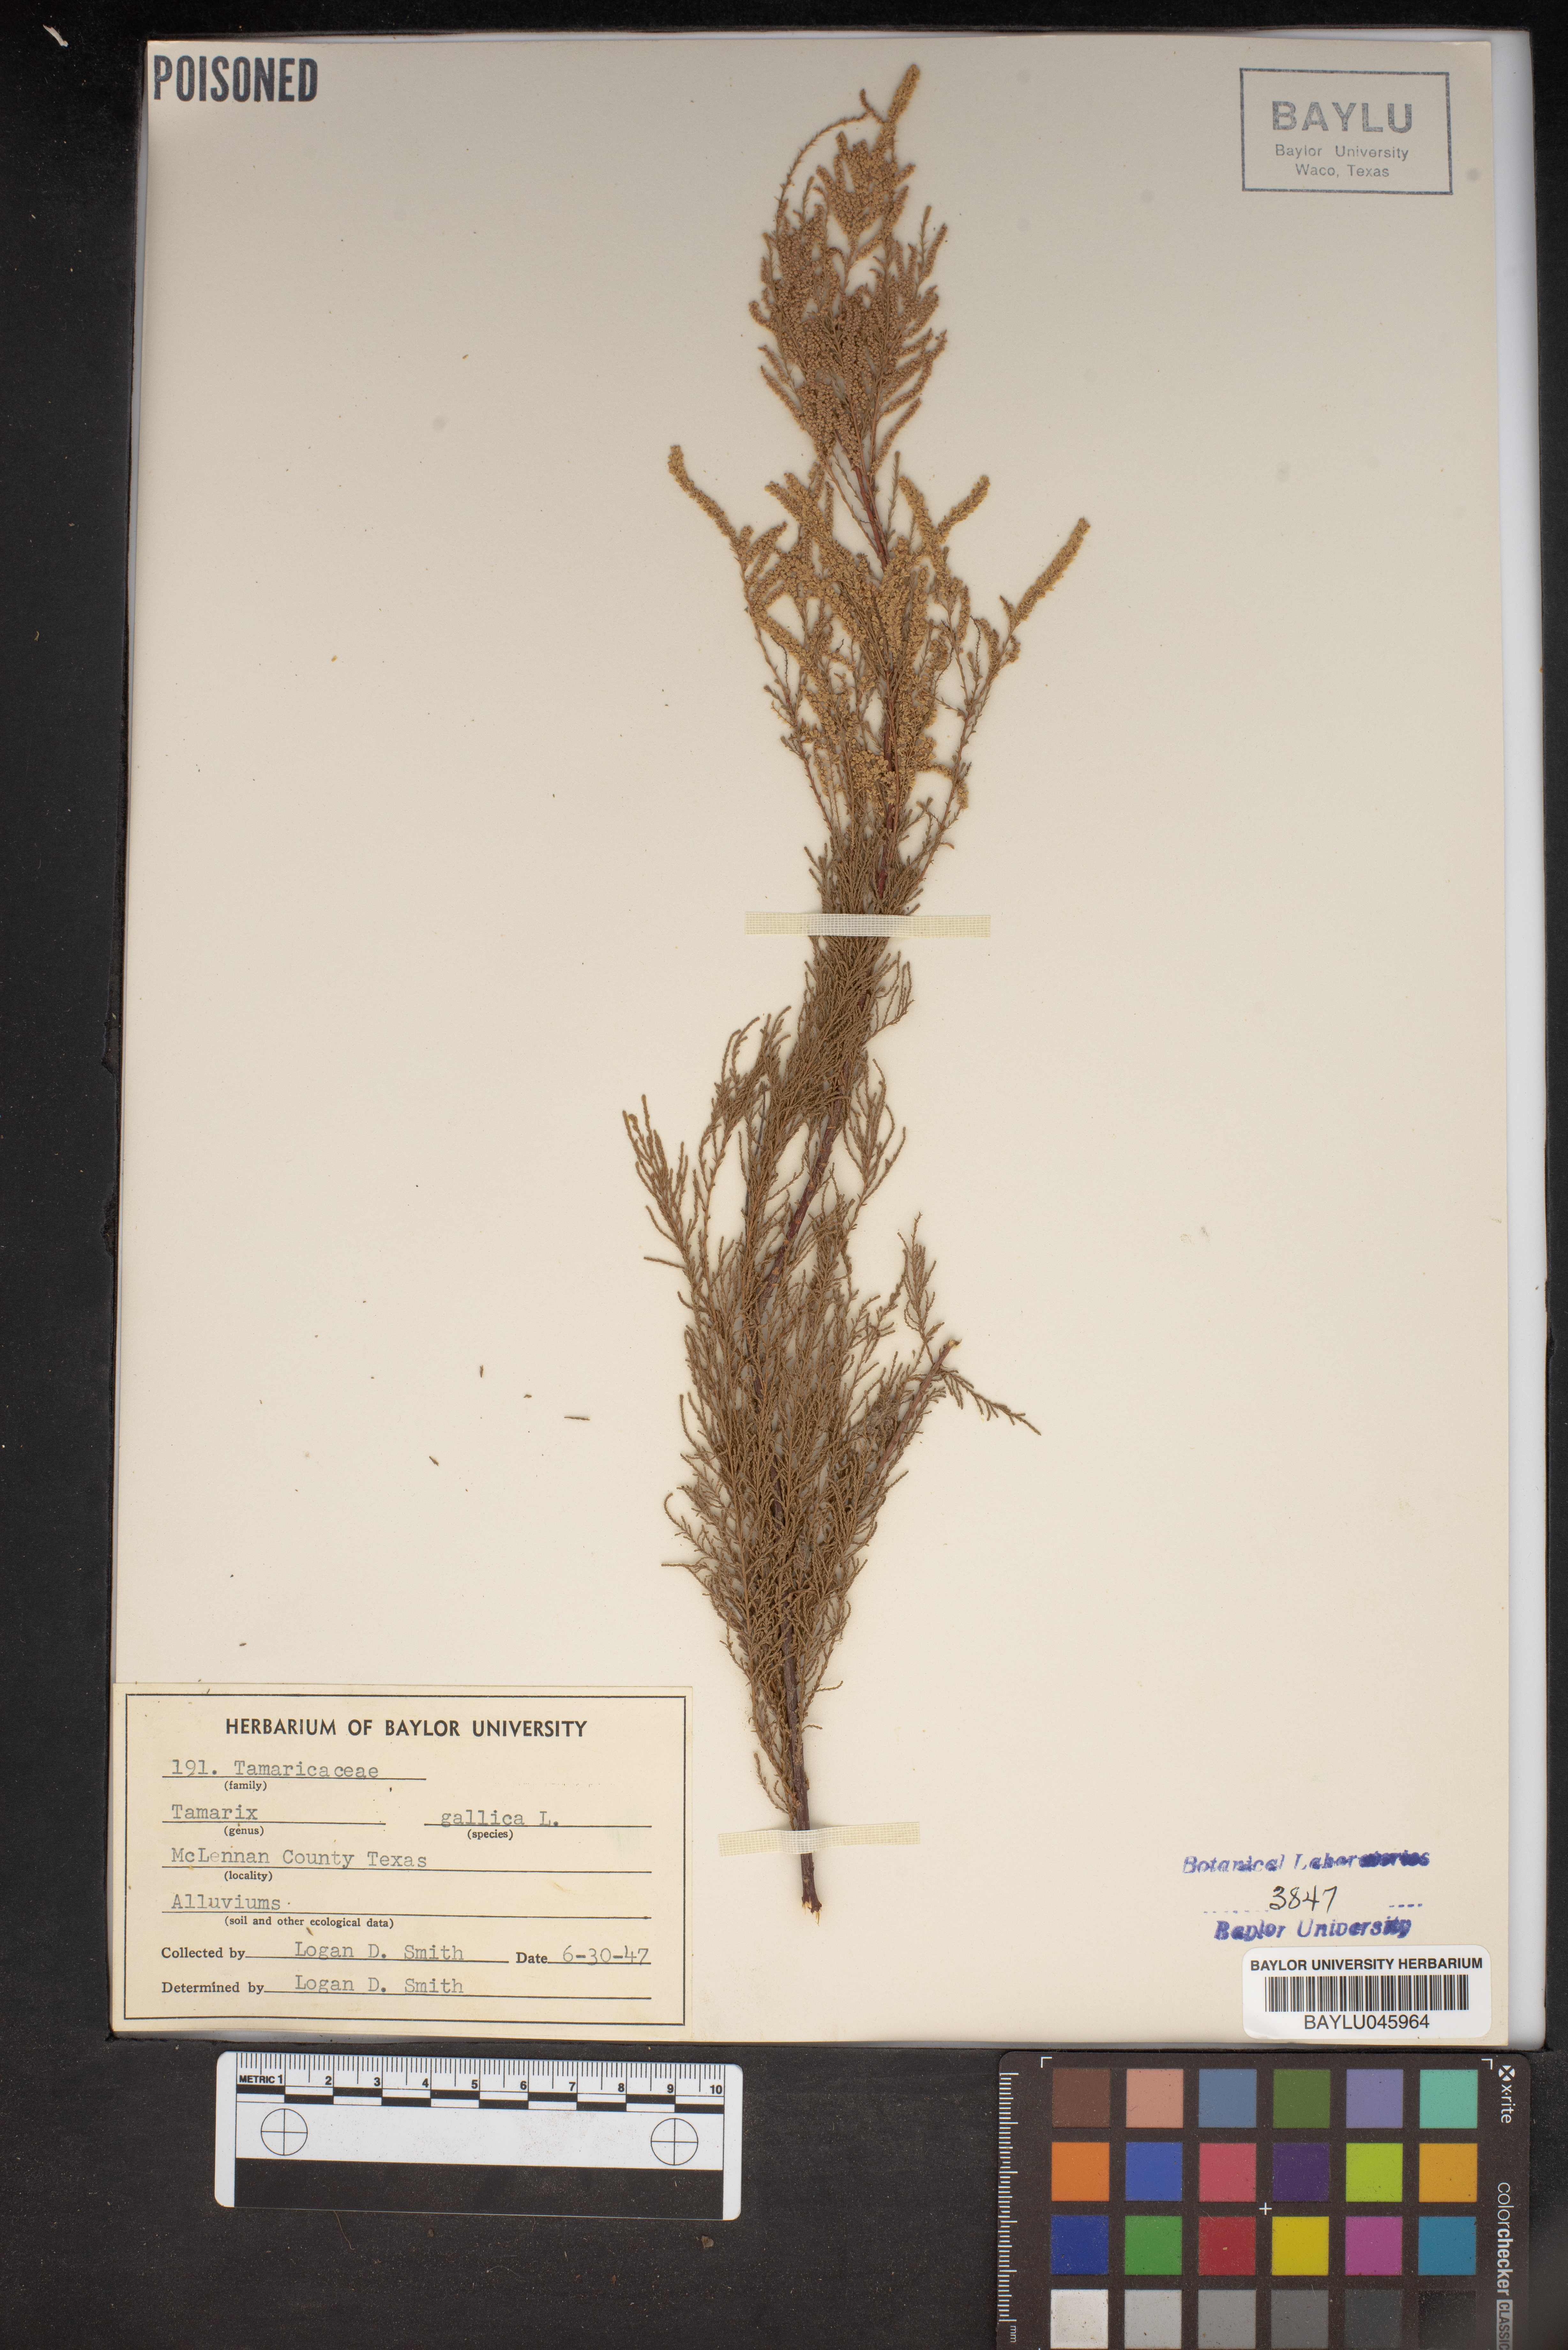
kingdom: Plantae
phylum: Tracheophyta
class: Magnoliopsida
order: Caryophyllales
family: Tamaricaceae
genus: Tamarix
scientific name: Tamarix gallica
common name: Tamarisk
